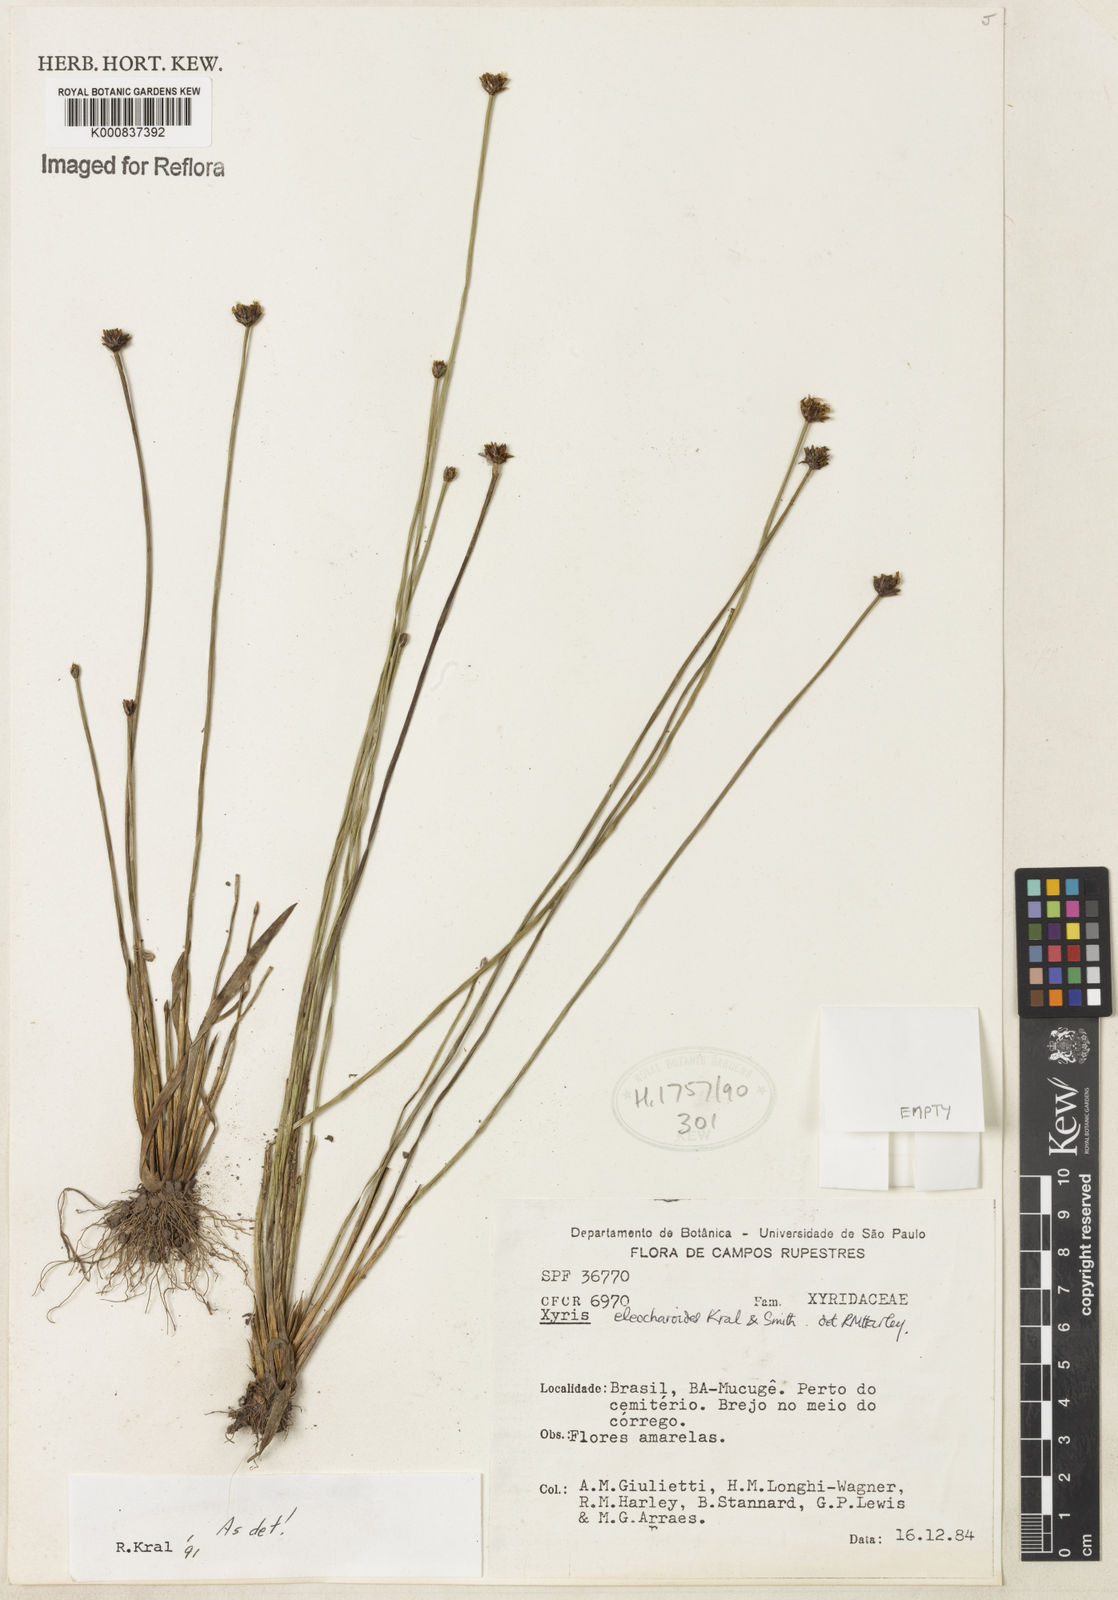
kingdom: Plantae
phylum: Tracheophyta
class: Liliopsida
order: Poales
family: Xyridaceae
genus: Xyris
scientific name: Xyris eleocharoides
